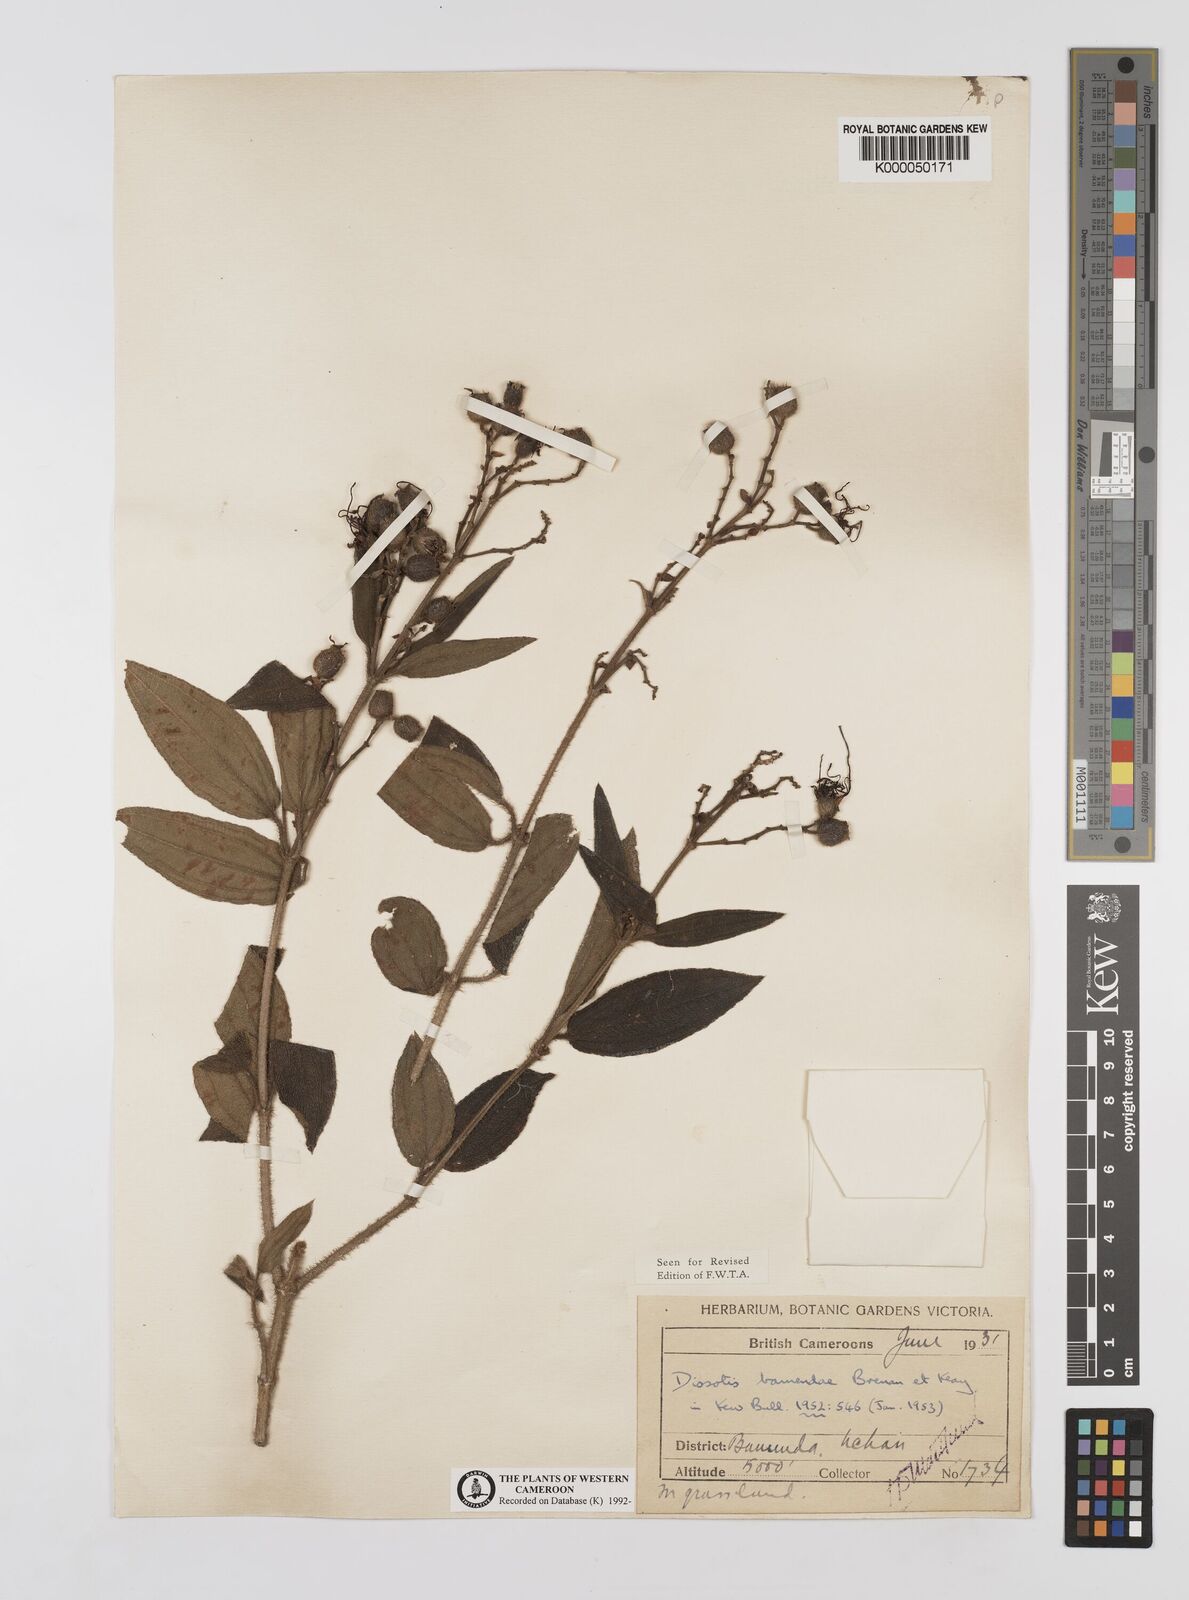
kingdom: Plantae
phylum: Tracheophyta
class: Magnoliopsida
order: Myrtales
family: Melastomataceae
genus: Rosettea
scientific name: Rosettea riparia
